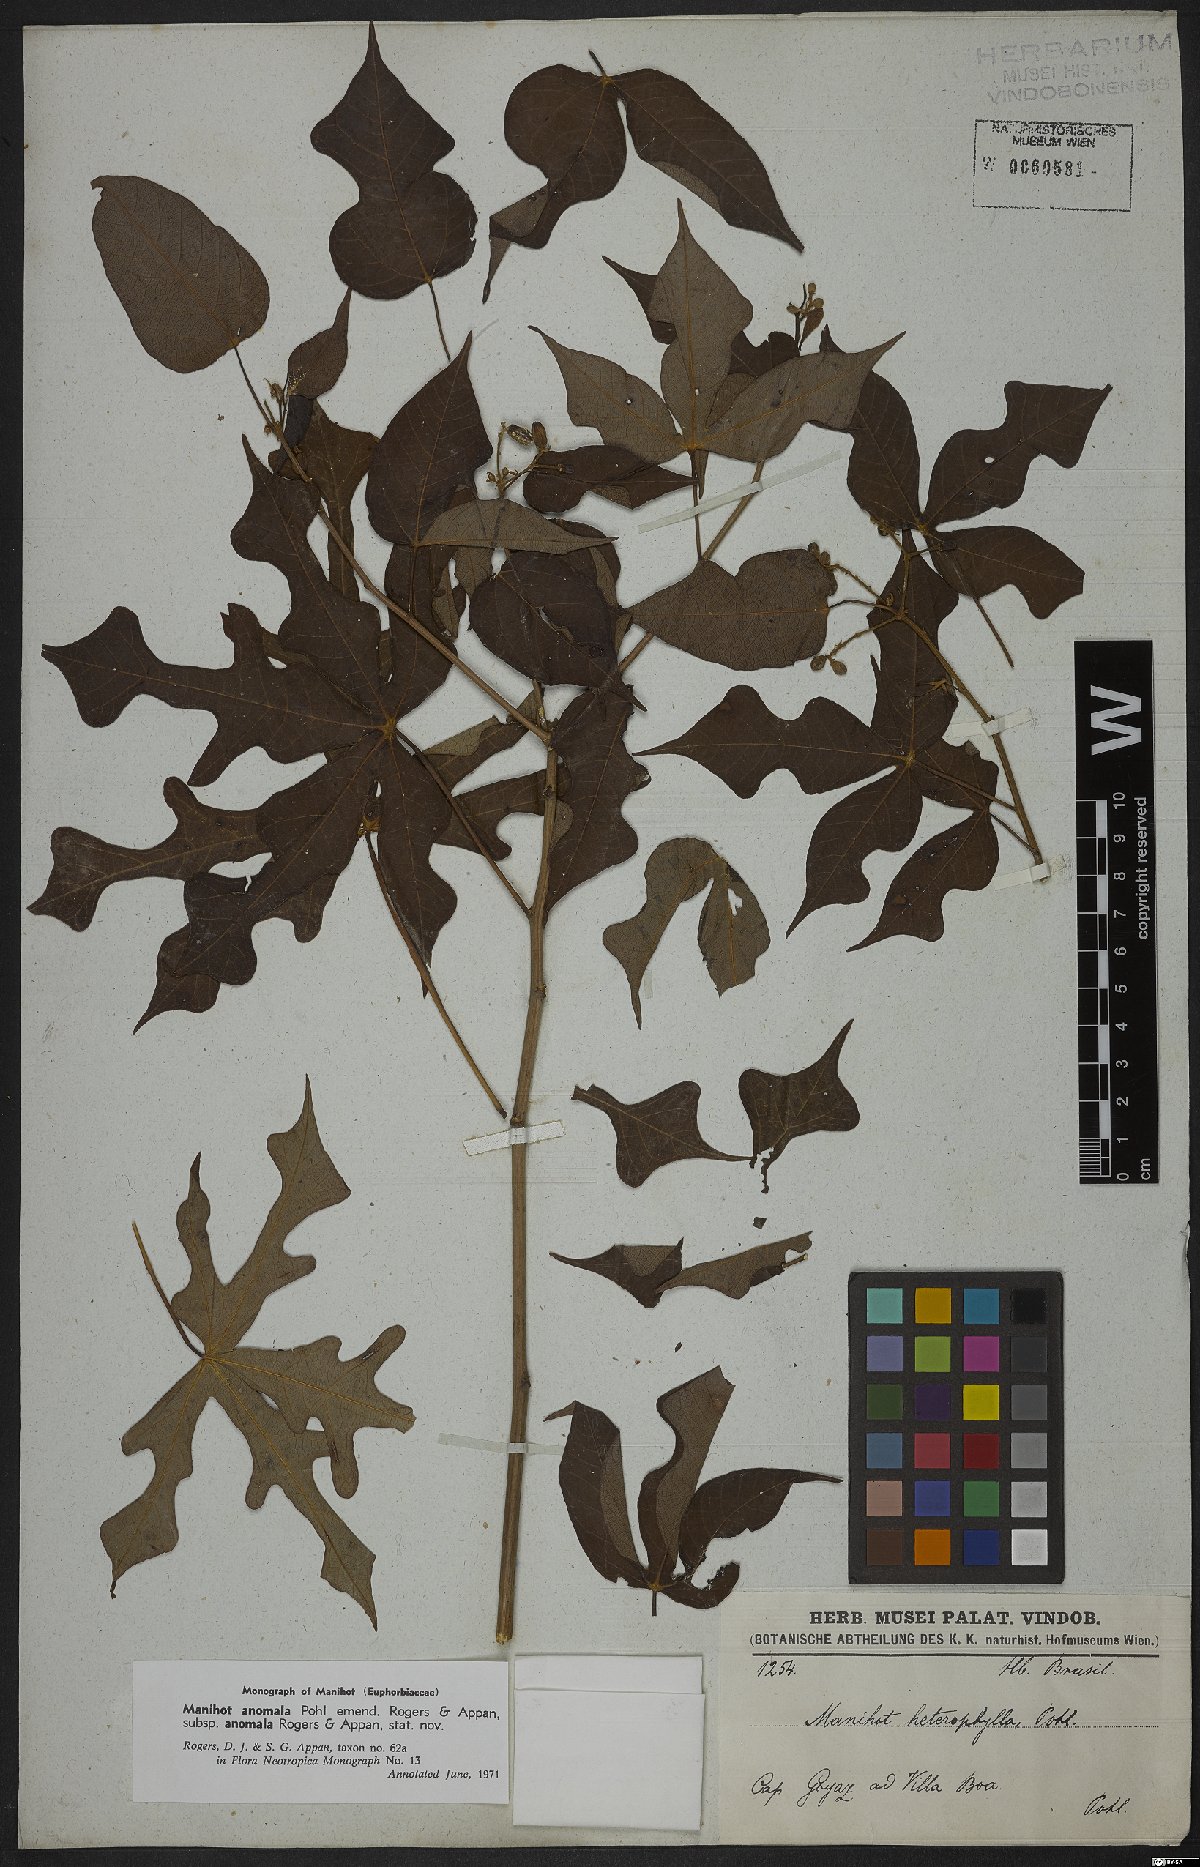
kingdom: Plantae
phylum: Tracheophyta
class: Magnoliopsida
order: Malpighiales
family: Euphorbiaceae
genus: Manihot
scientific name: Manihot anomala
